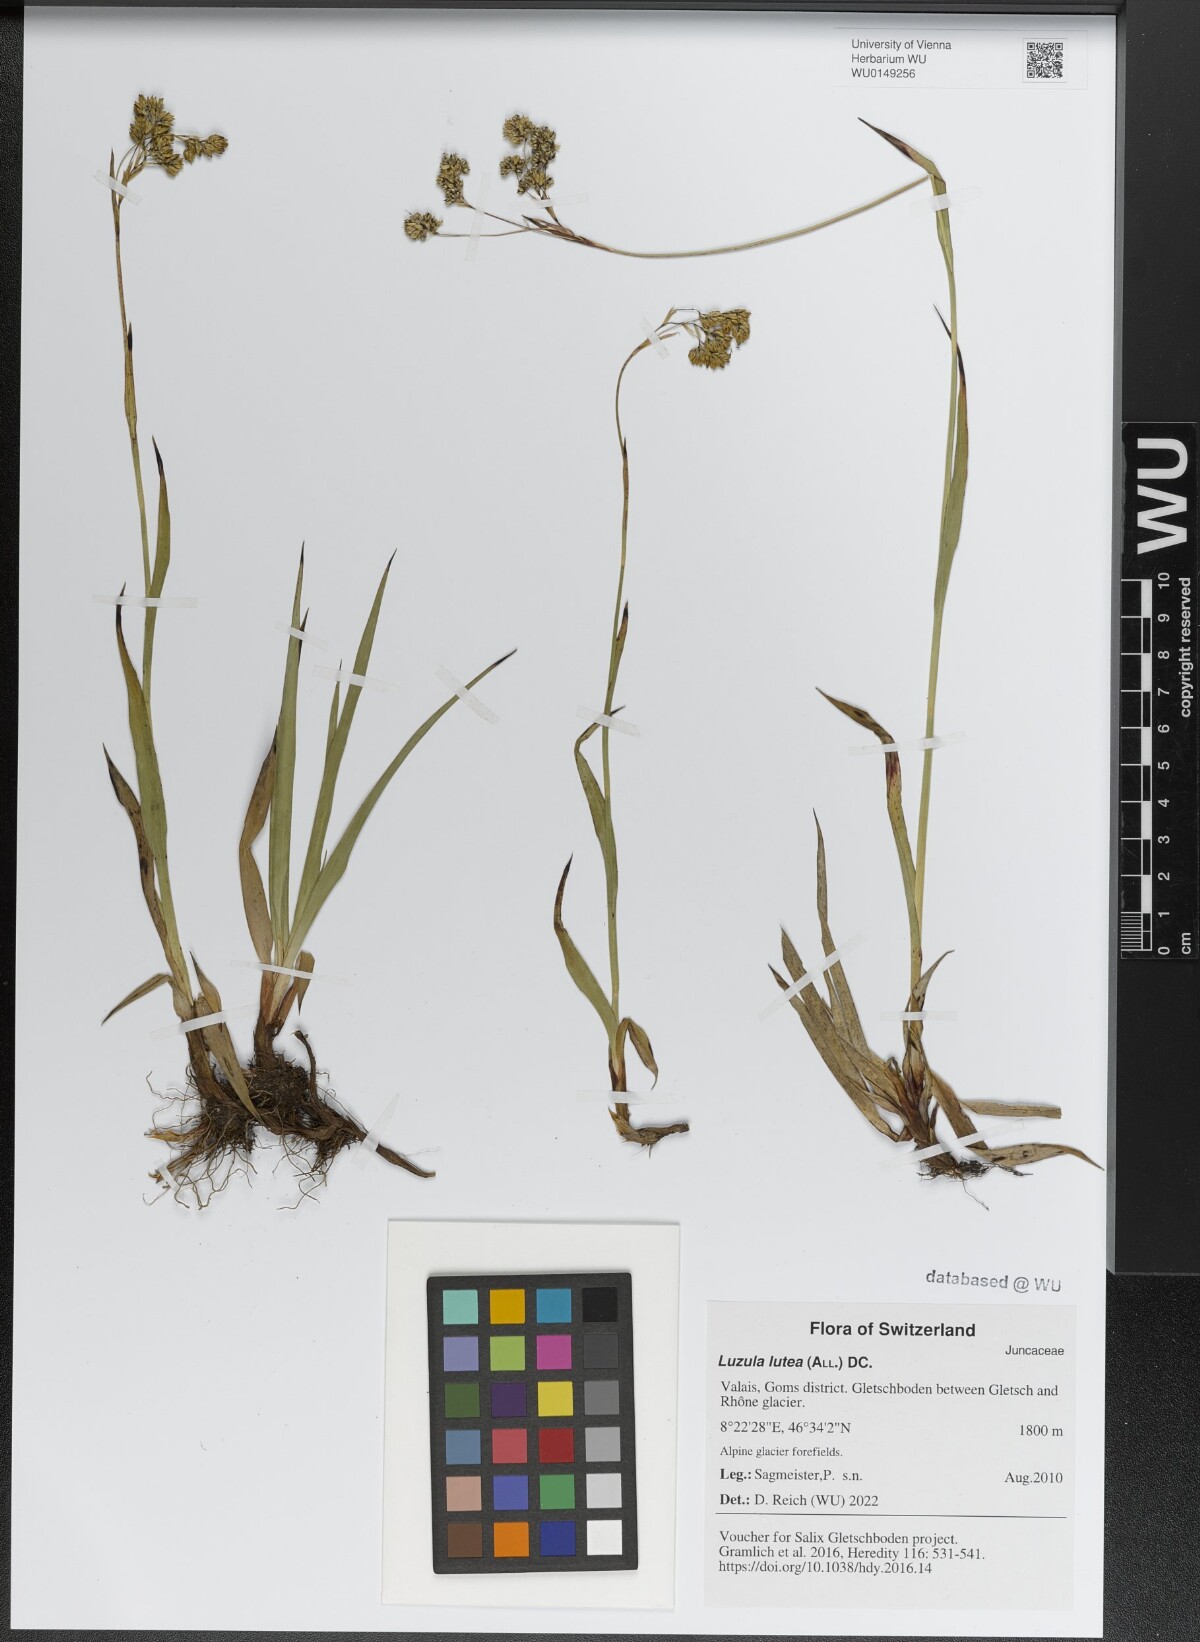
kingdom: Plantae
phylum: Tracheophyta
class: Liliopsida
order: Poales
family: Juncaceae
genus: Luzula
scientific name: Luzula lutea
